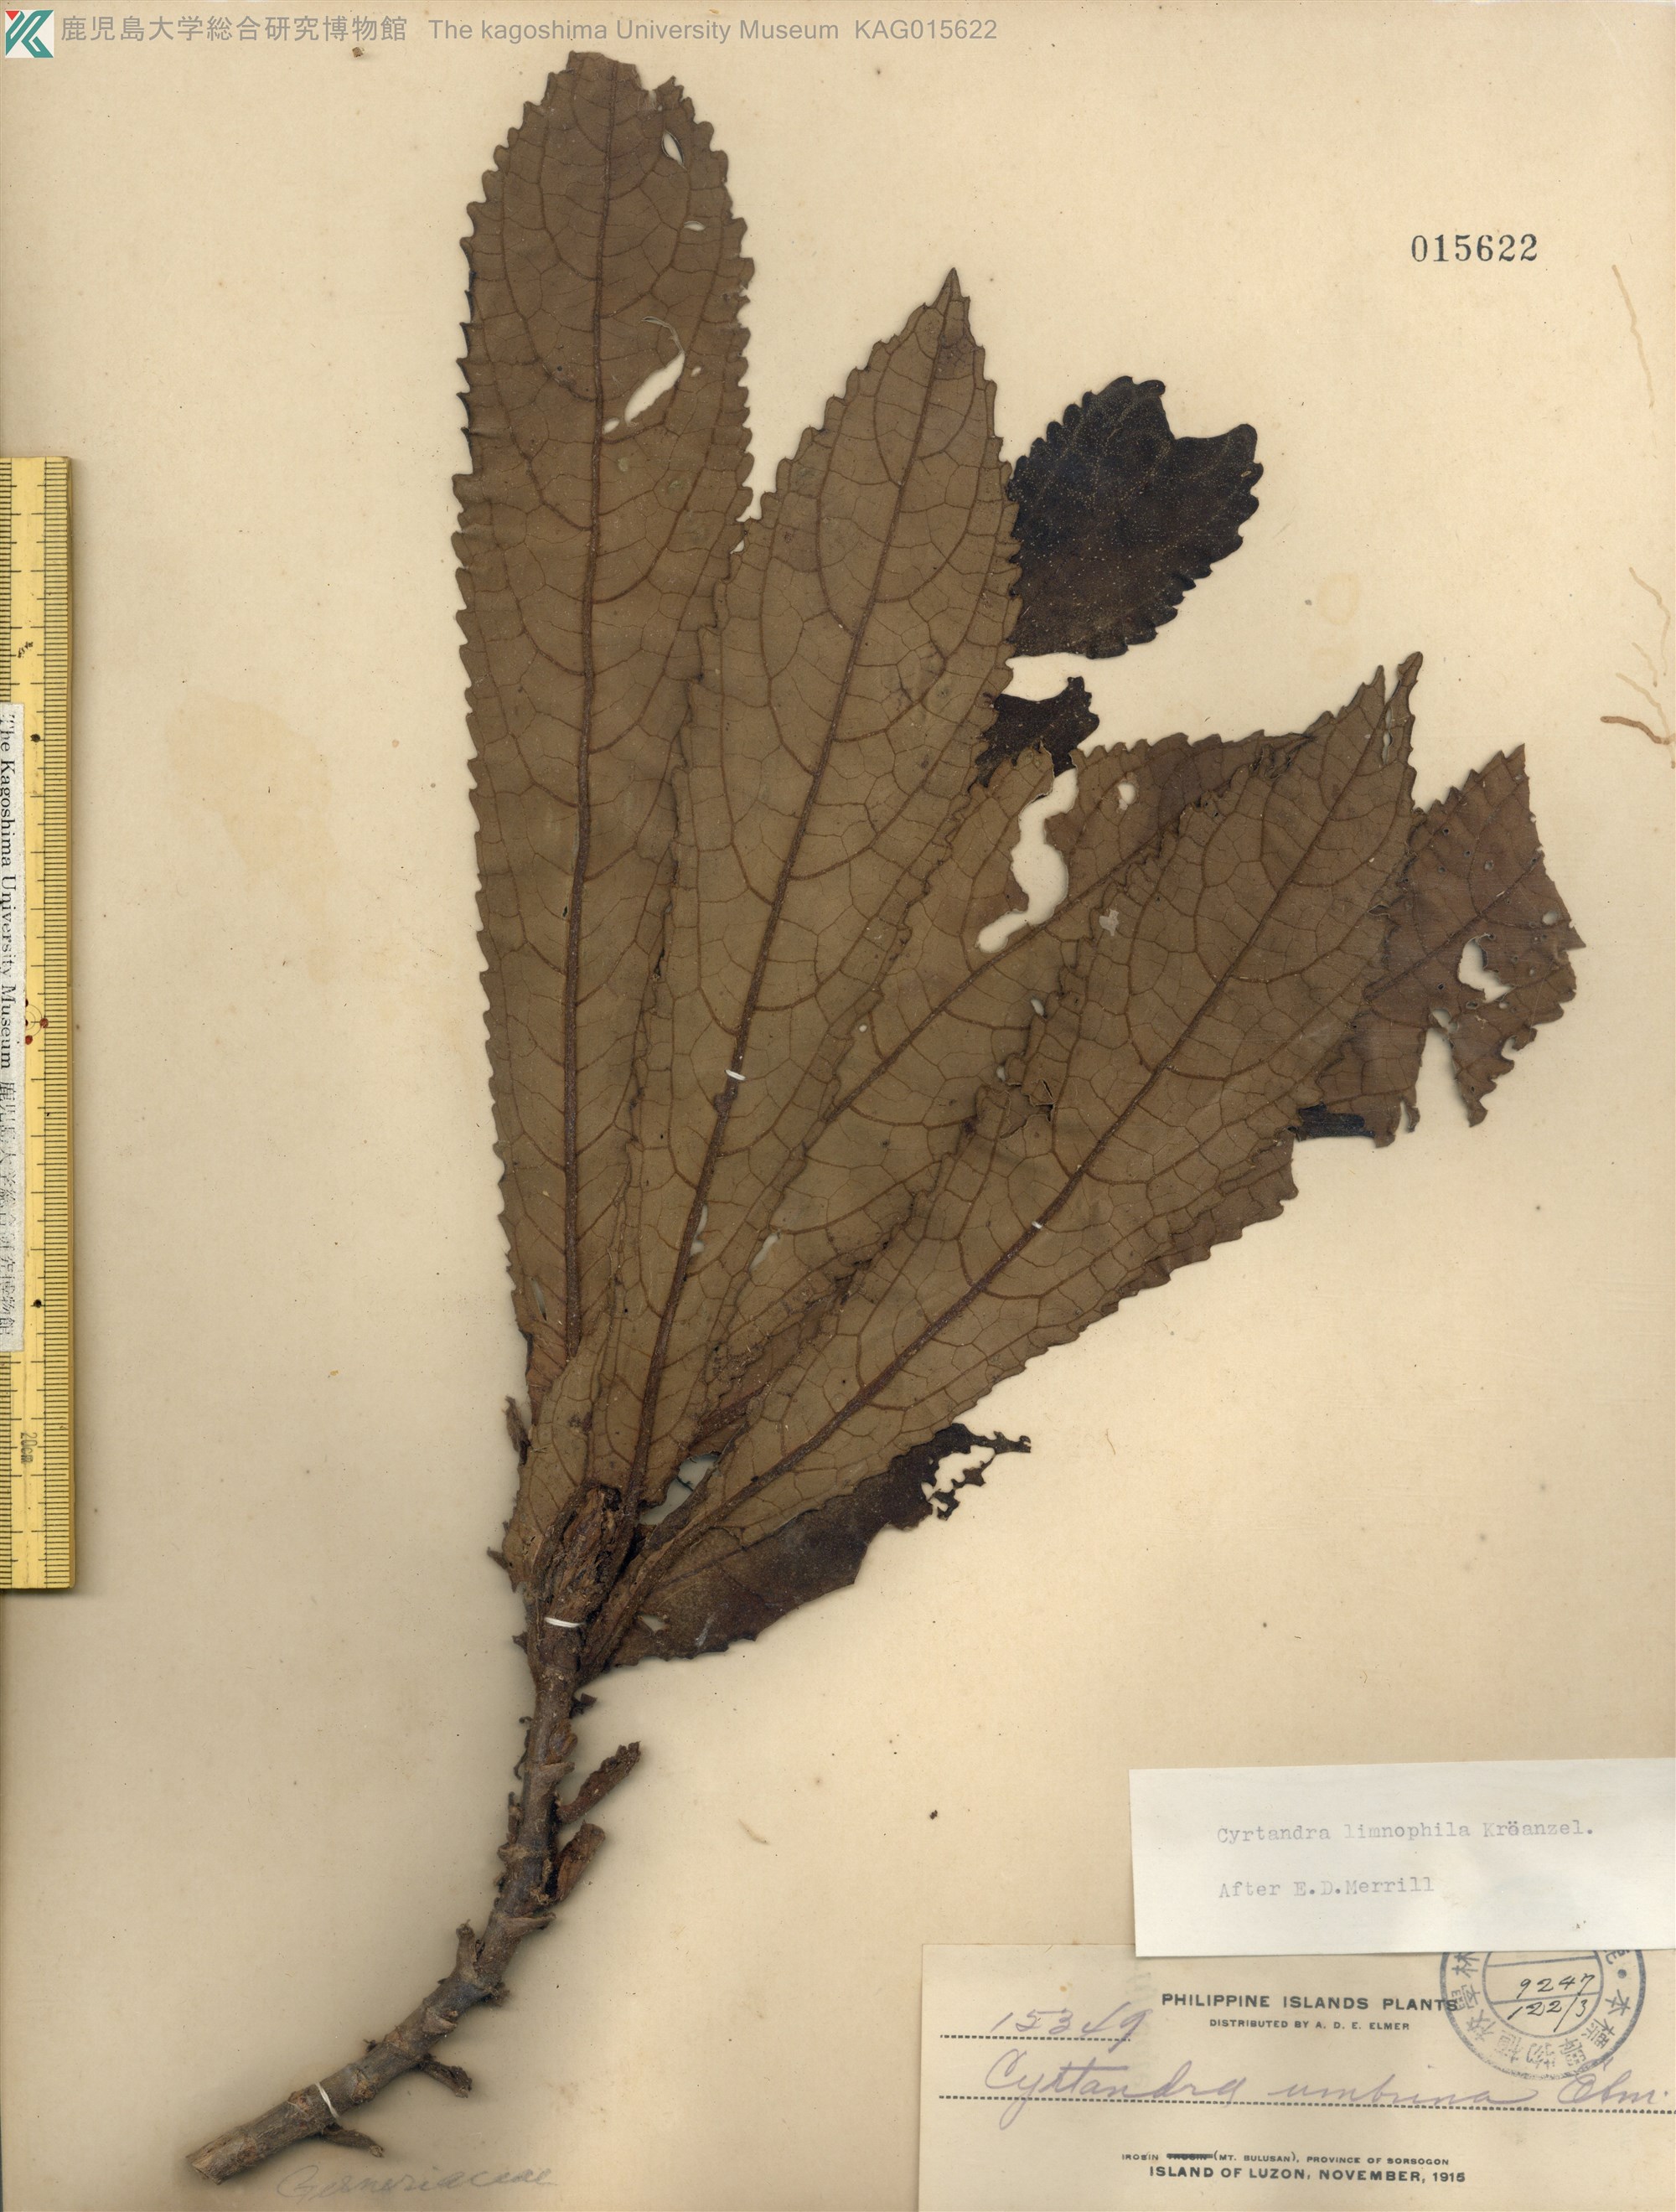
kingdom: Plantae
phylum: Tracheophyta
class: Magnoliopsida
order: Lamiales
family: Gesneriaceae
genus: Cyrtandra
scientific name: Cyrtandra limnophila
